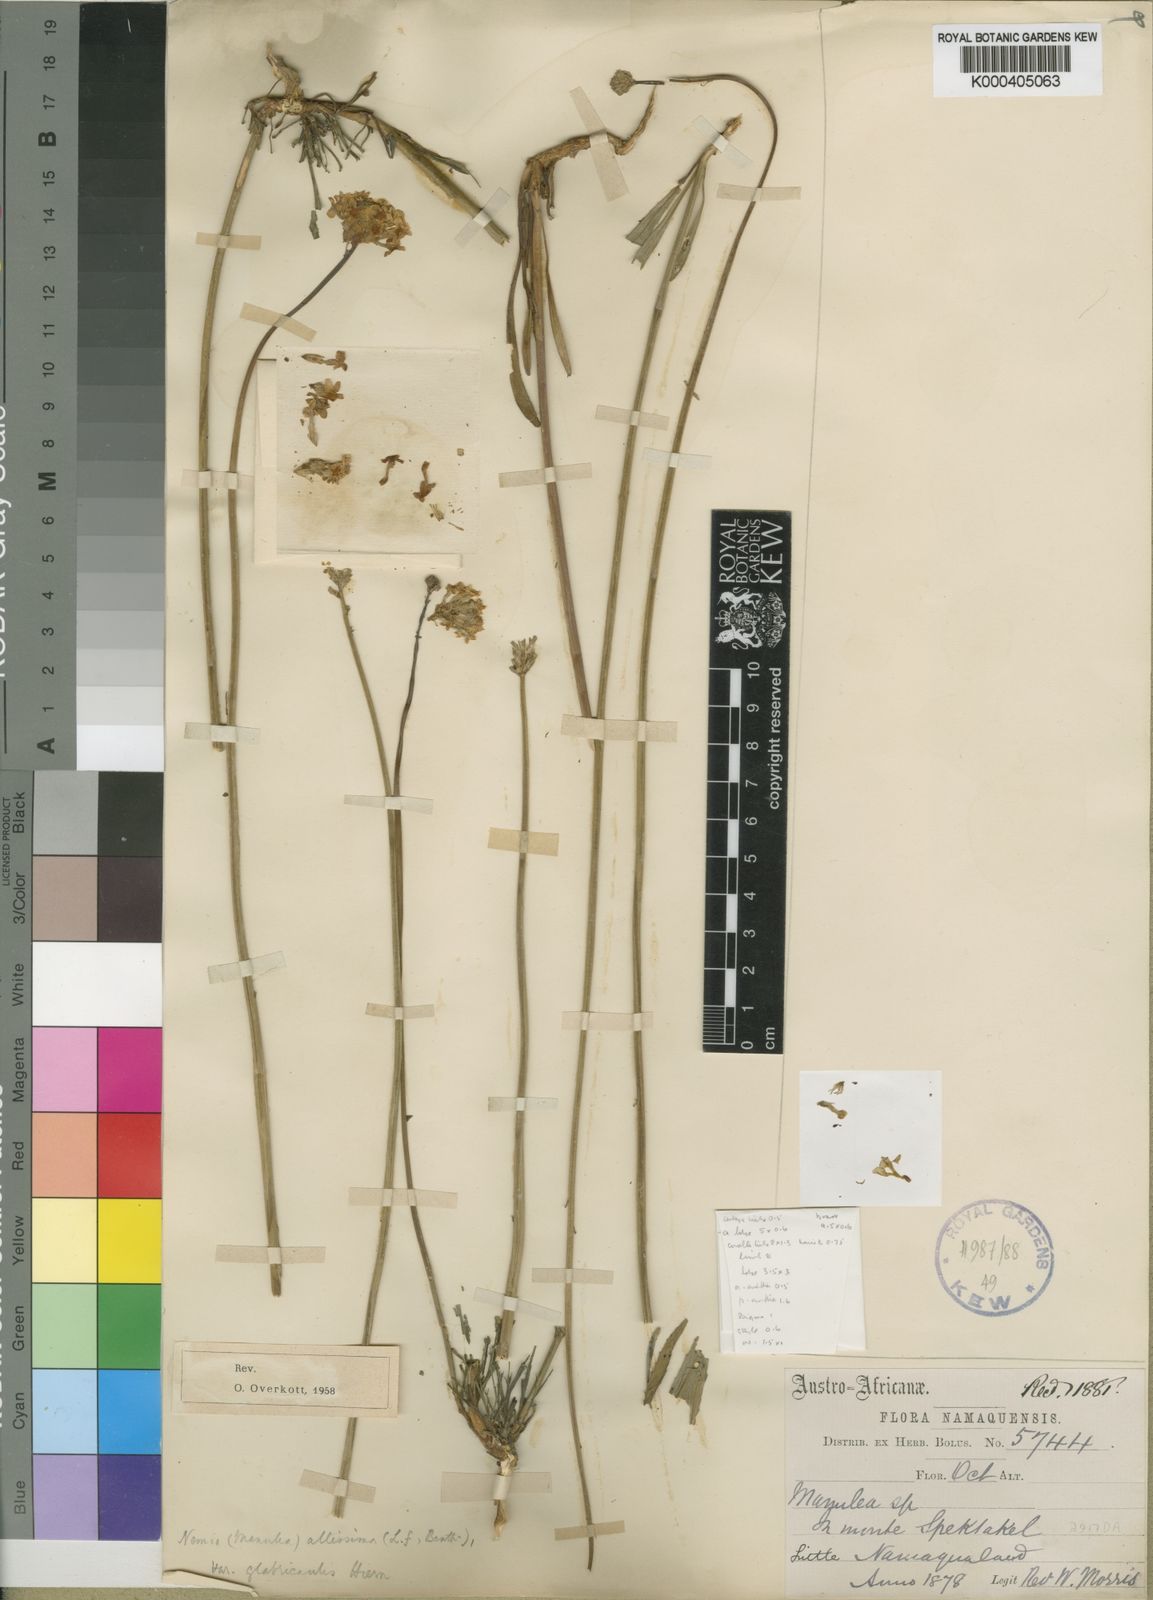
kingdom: Plantae
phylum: Tracheophyta
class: Magnoliopsida
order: Lamiales
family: Scrophulariaceae
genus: Manulea
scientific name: Manulea altissima
